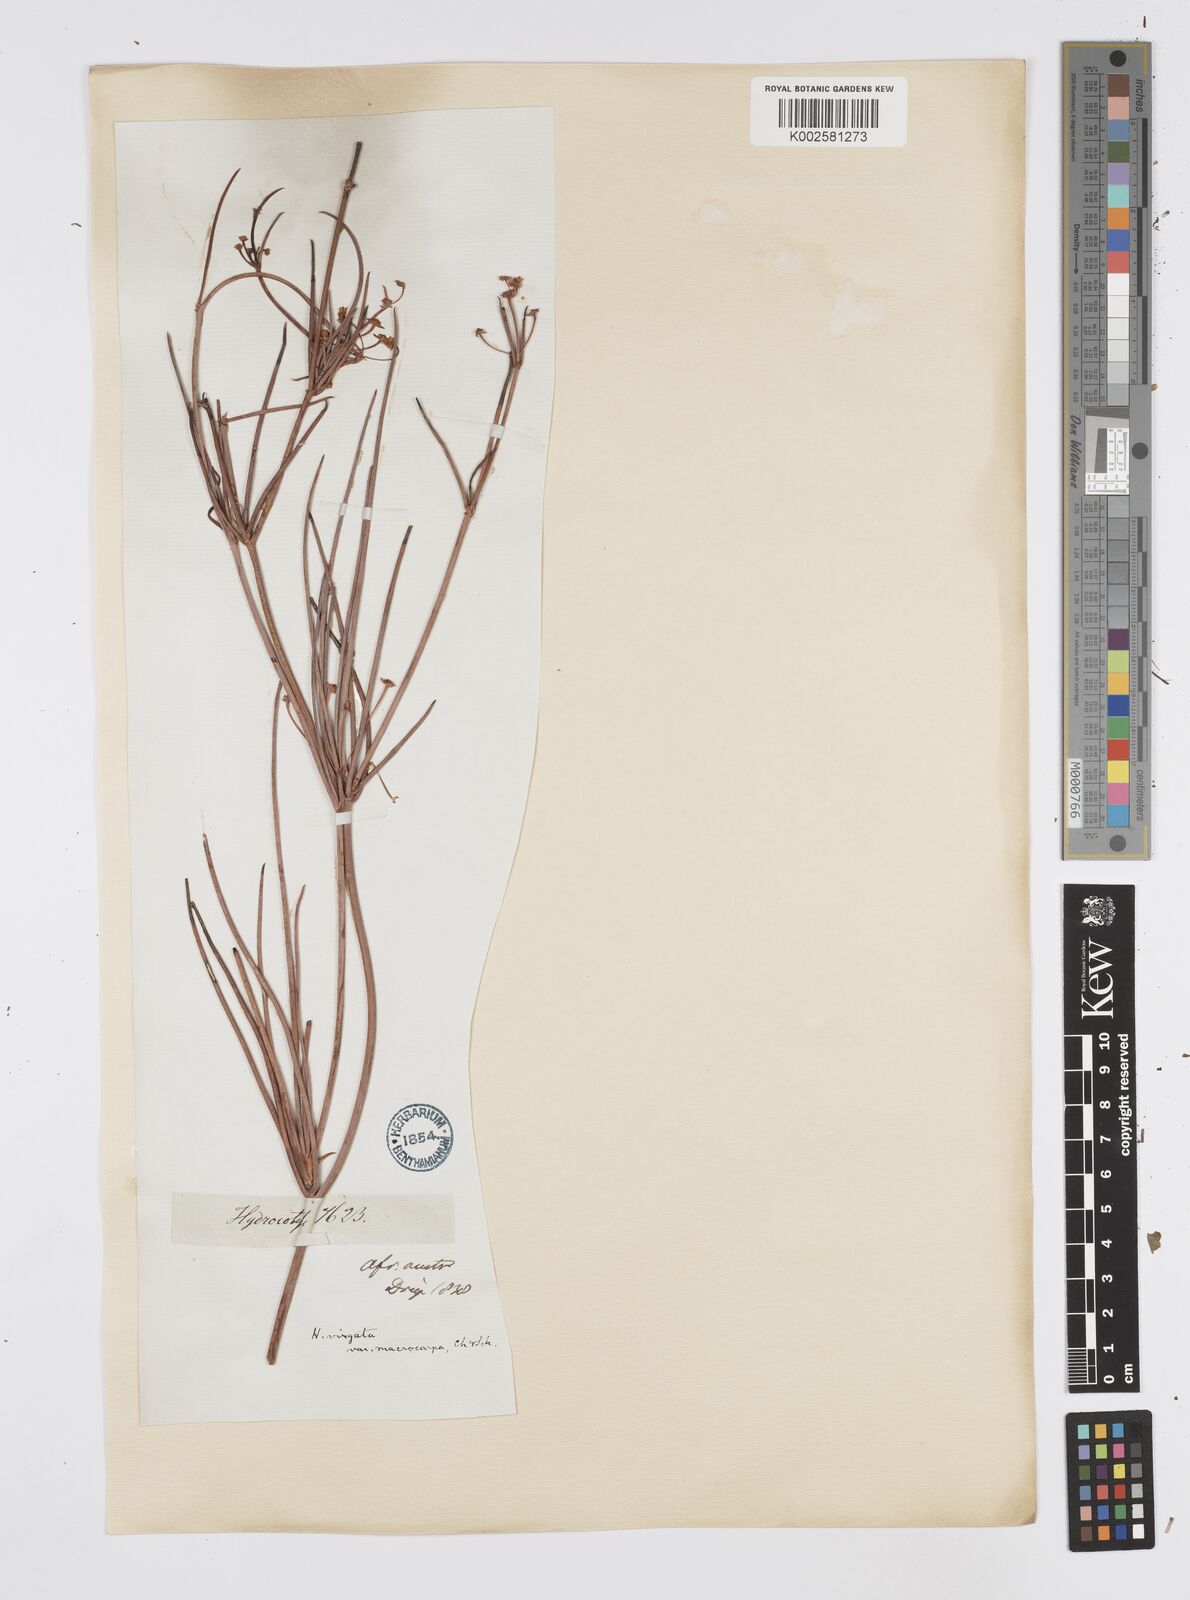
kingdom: Plantae
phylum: Tracheophyta
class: Magnoliopsida
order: Apiales
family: Apiaceae
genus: Centella
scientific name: Centella linifolia
